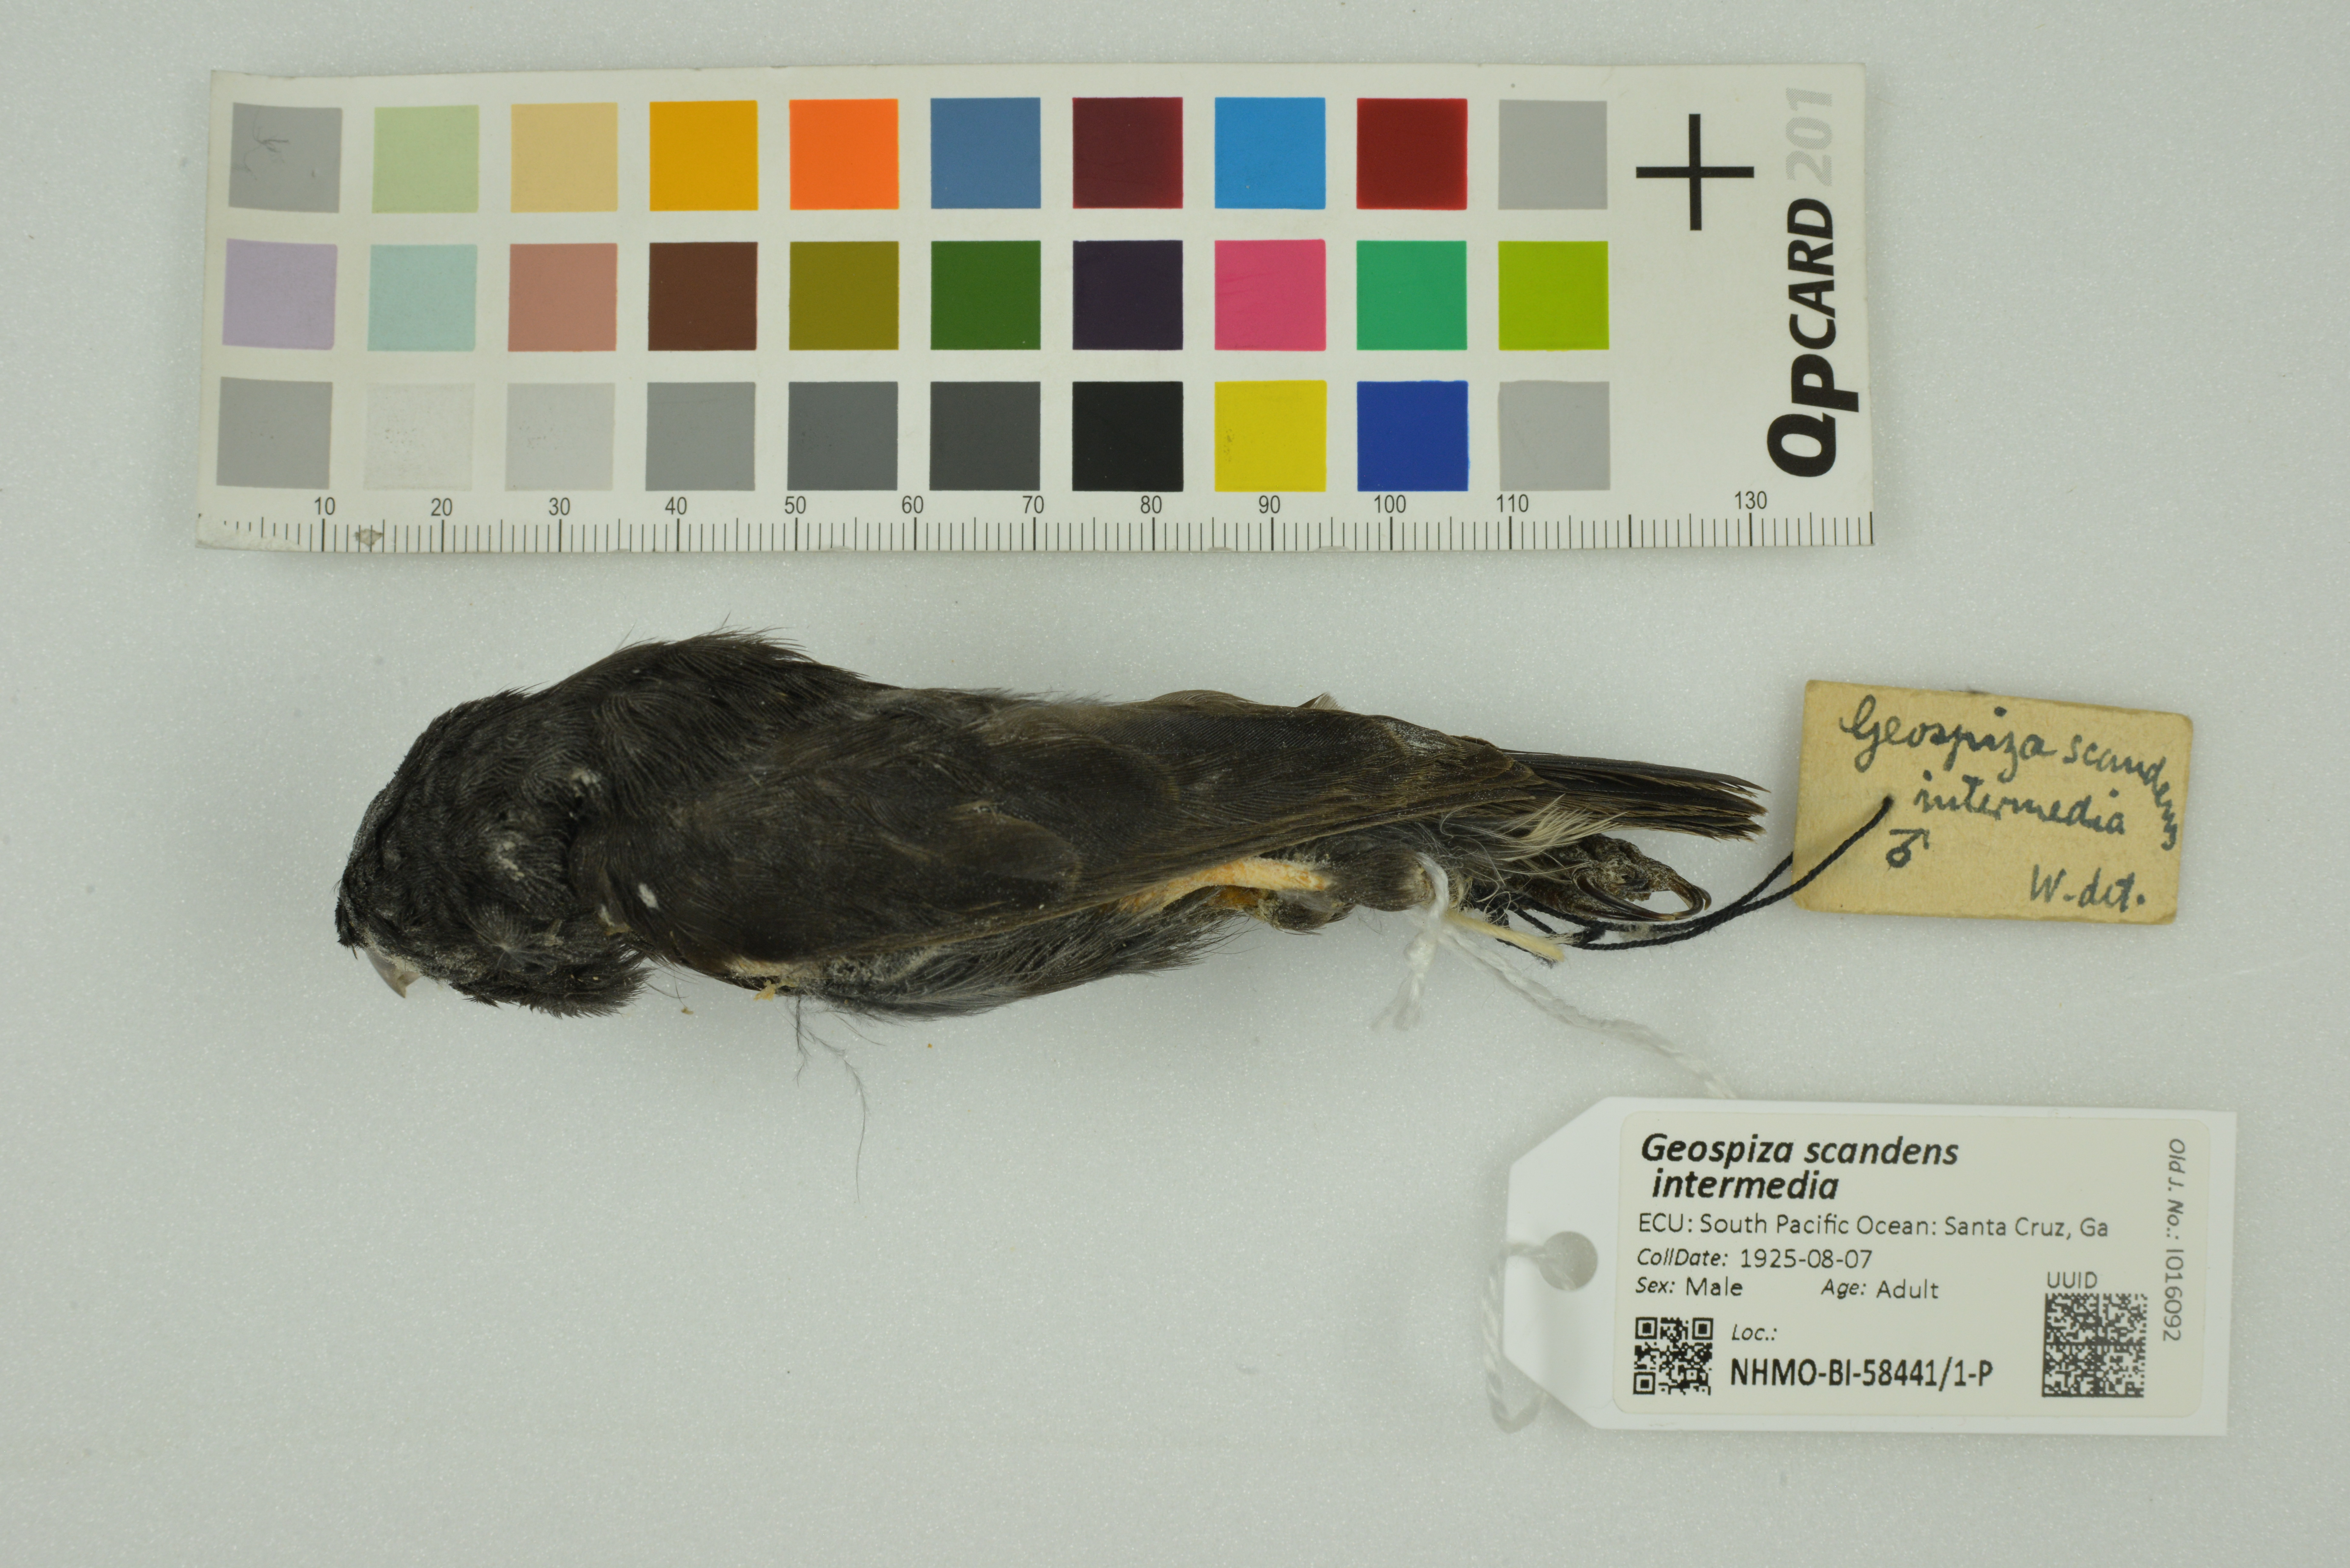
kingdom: Animalia
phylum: Chordata
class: Aves
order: Passeriformes
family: Thraupidae
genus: Geospiza
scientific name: Geospiza scandens
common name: Common cactus-finch
